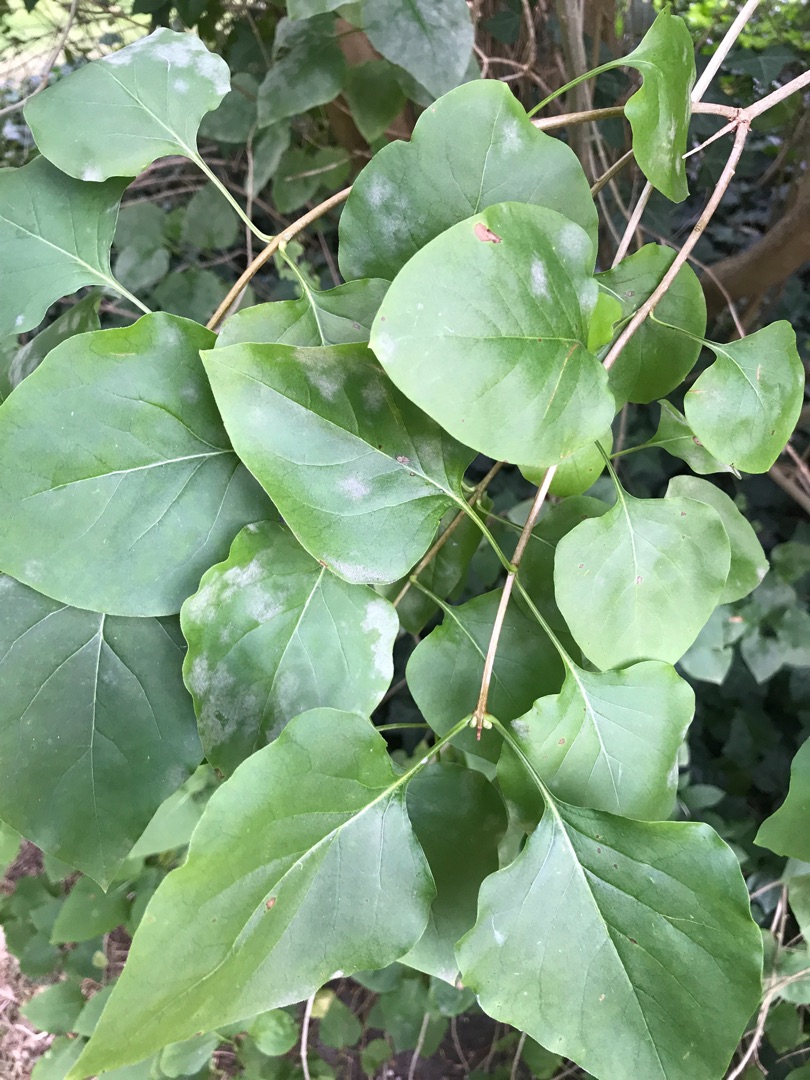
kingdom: Plantae
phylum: Tracheophyta
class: Magnoliopsida
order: Lamiales
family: Oleaceae
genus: Syringa
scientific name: Syringa vulgaris
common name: Syren
